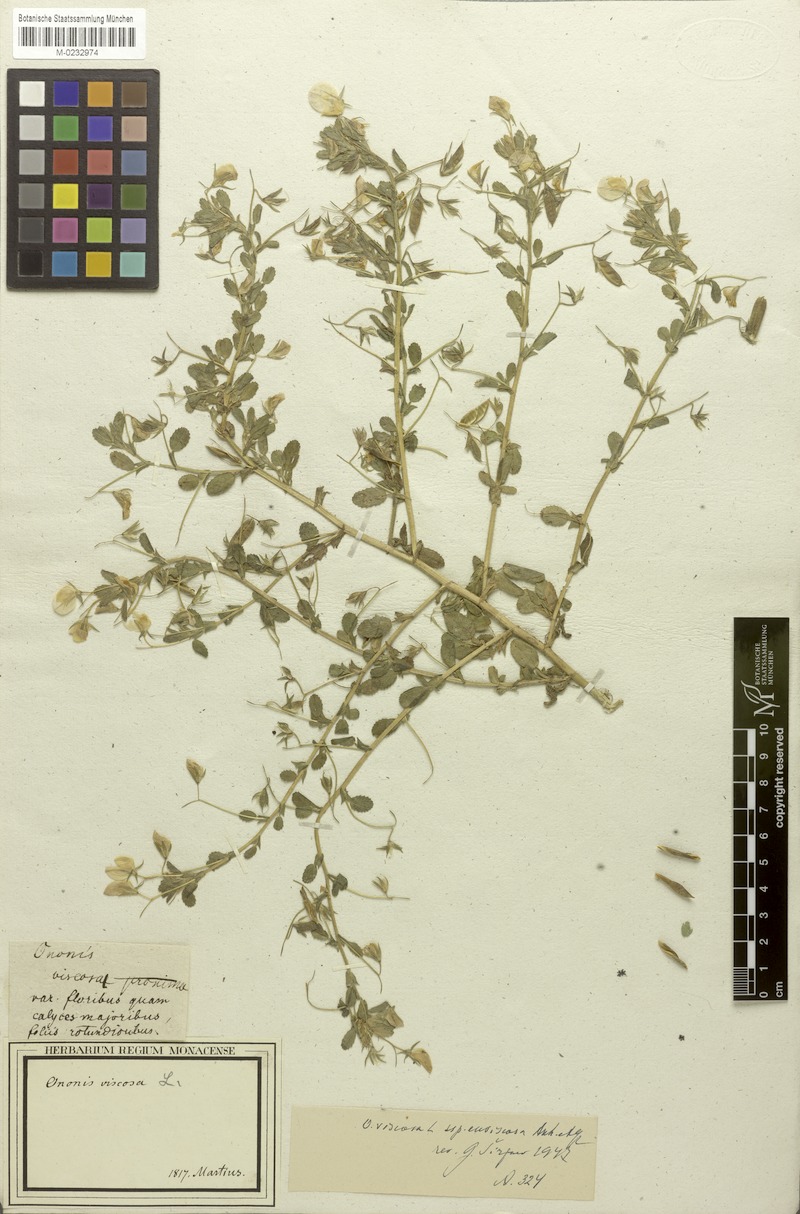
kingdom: Plantae
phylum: Tracheophyta
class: Magnoliopsida
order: Fabales
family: Fabaceae
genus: Ononis
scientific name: Ononis viscosa
